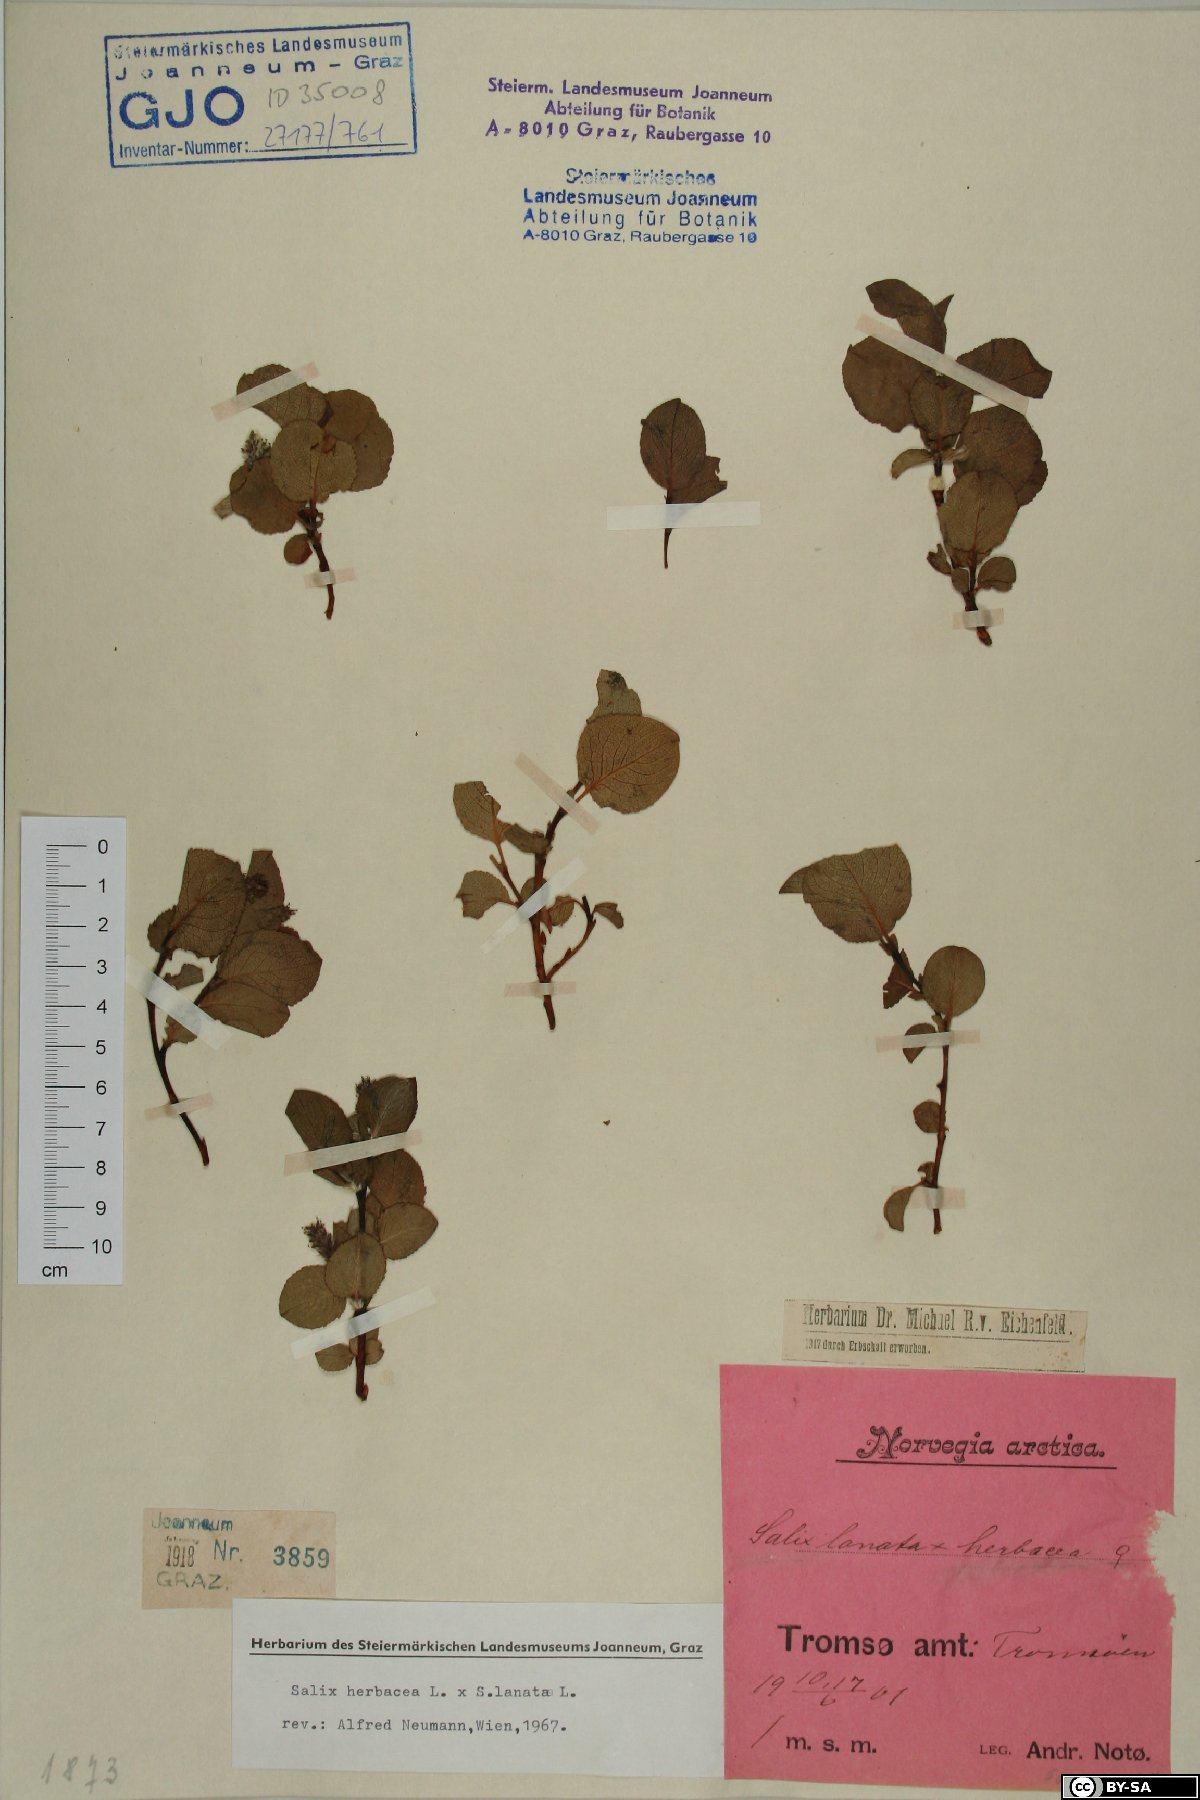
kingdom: Plantae
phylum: Tracheophyta
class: Magnoliopsida
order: Malpighiales
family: Salicaceae
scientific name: Salicaceae
